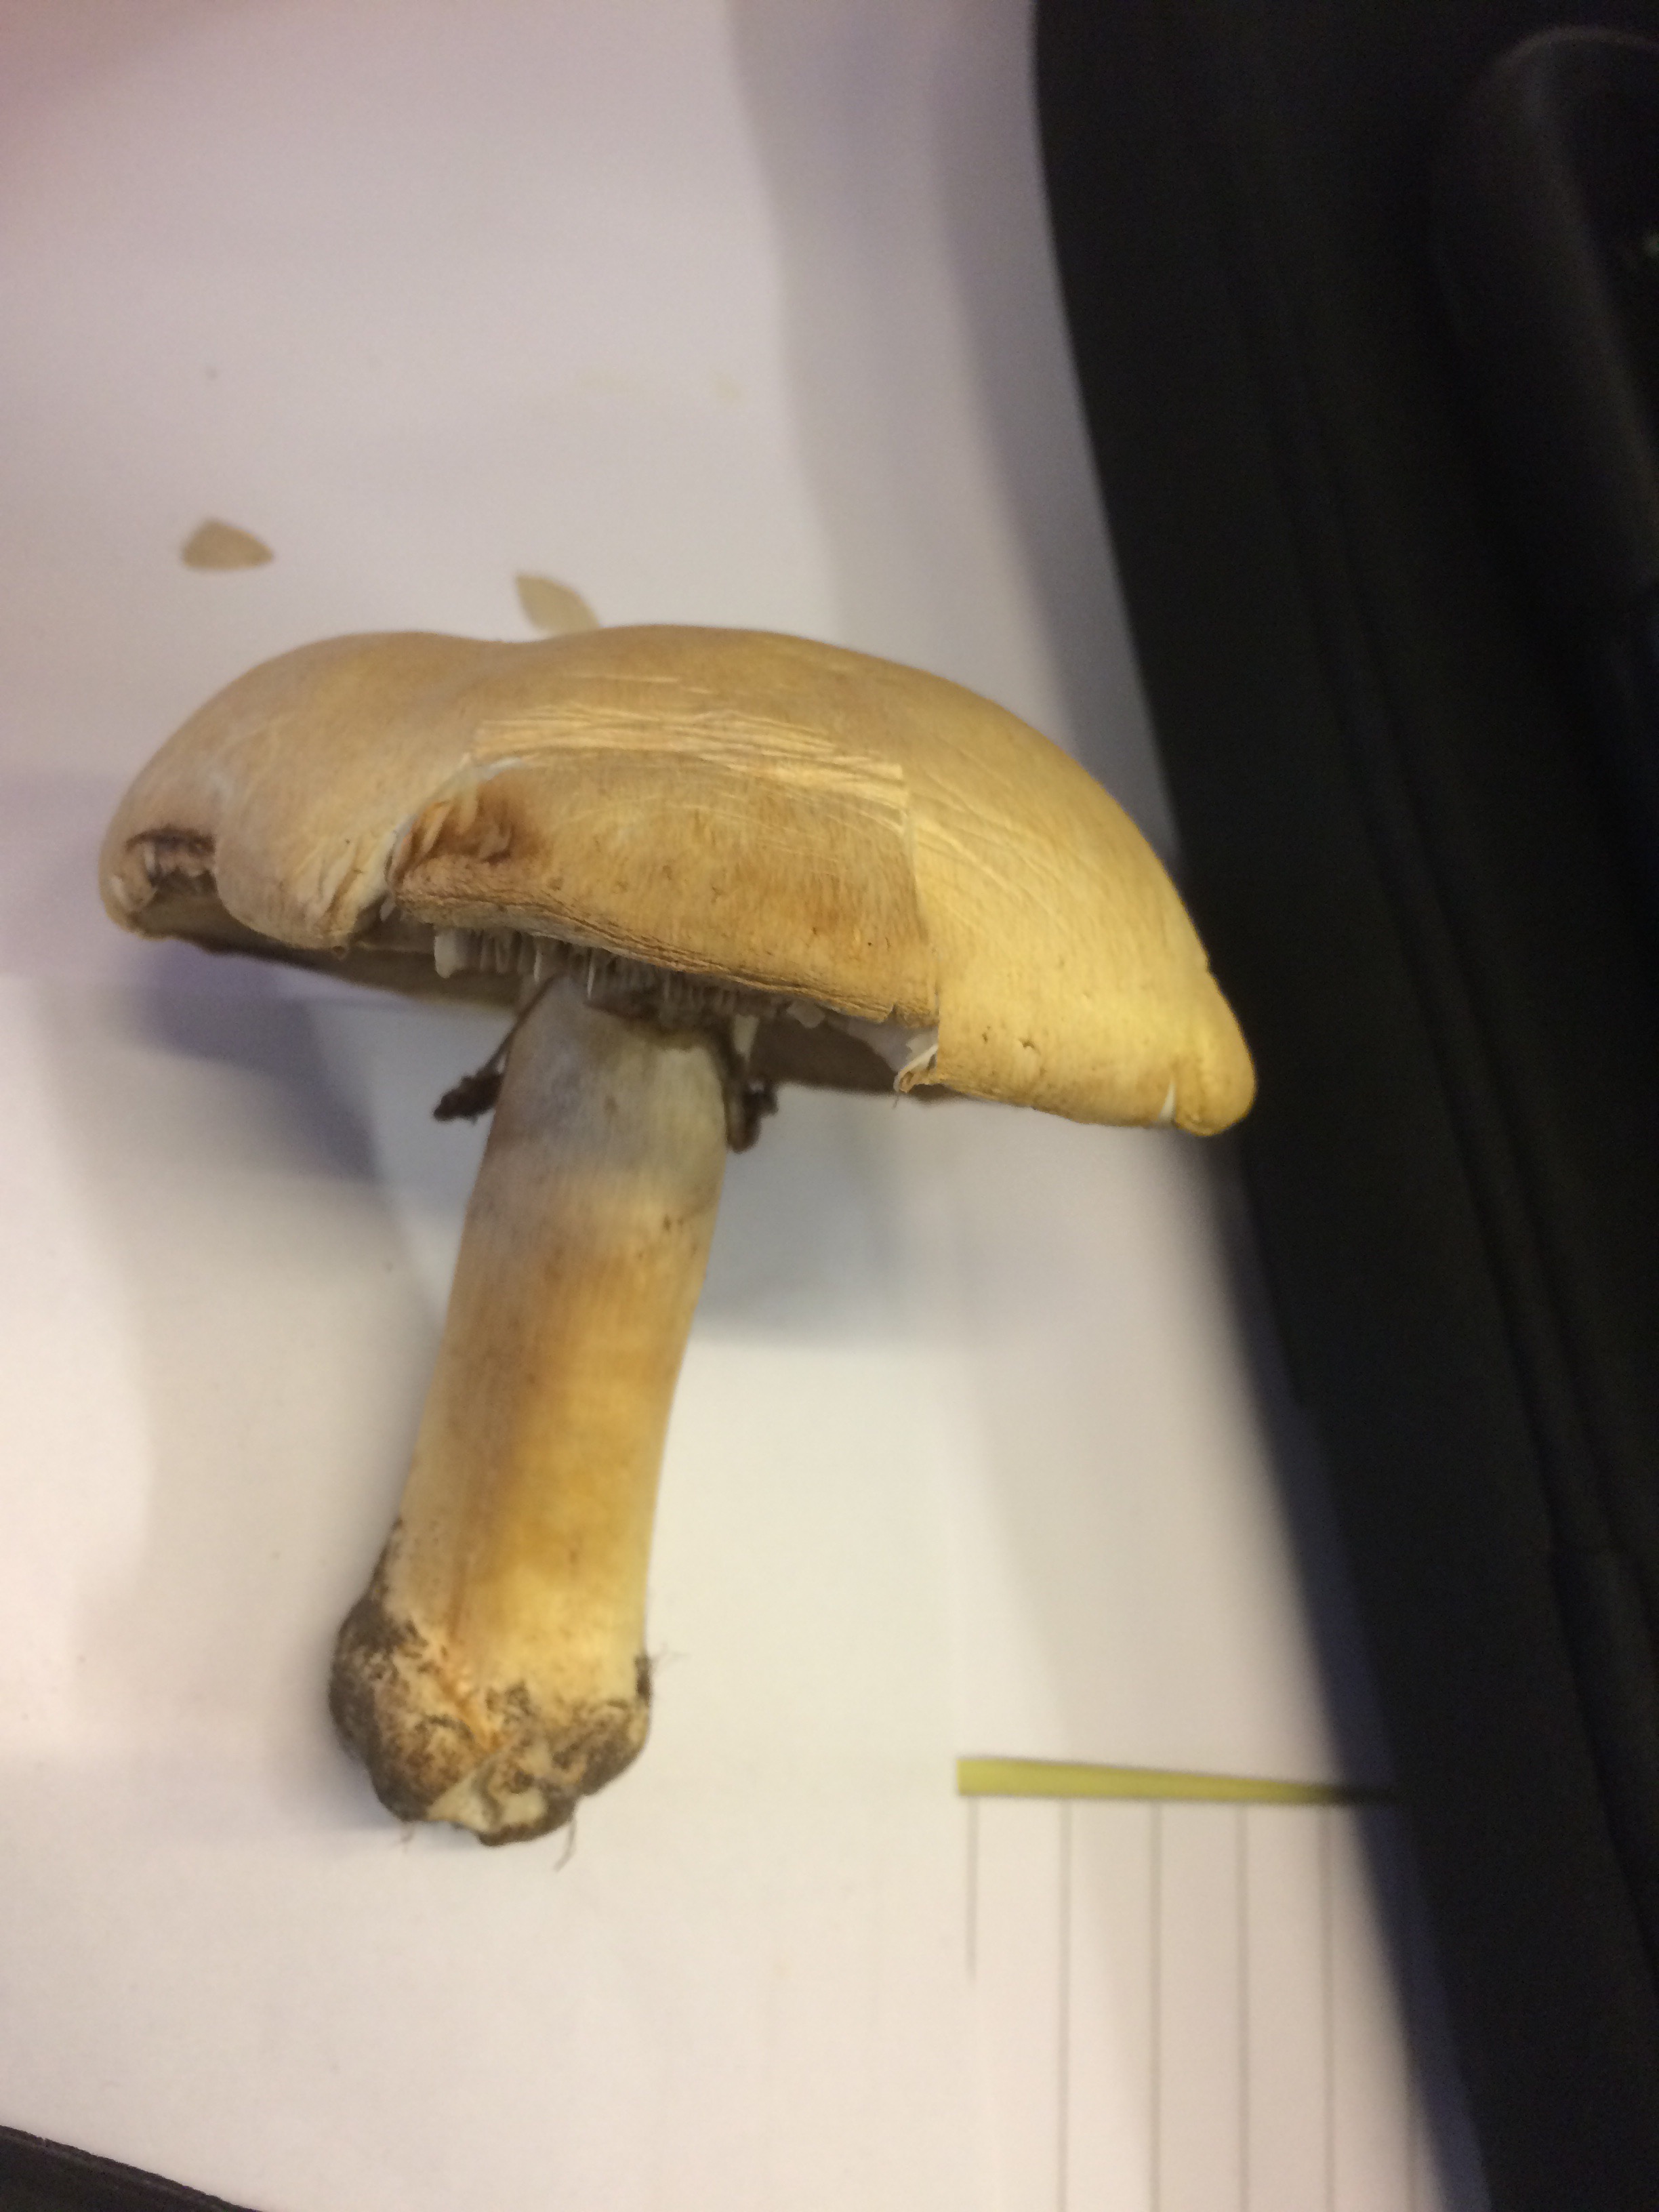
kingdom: Fungi
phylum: Basidiomycota
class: Agaricomycetes
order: Agaricales
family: Agaricaceae
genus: Agaricus
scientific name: Agaricus
